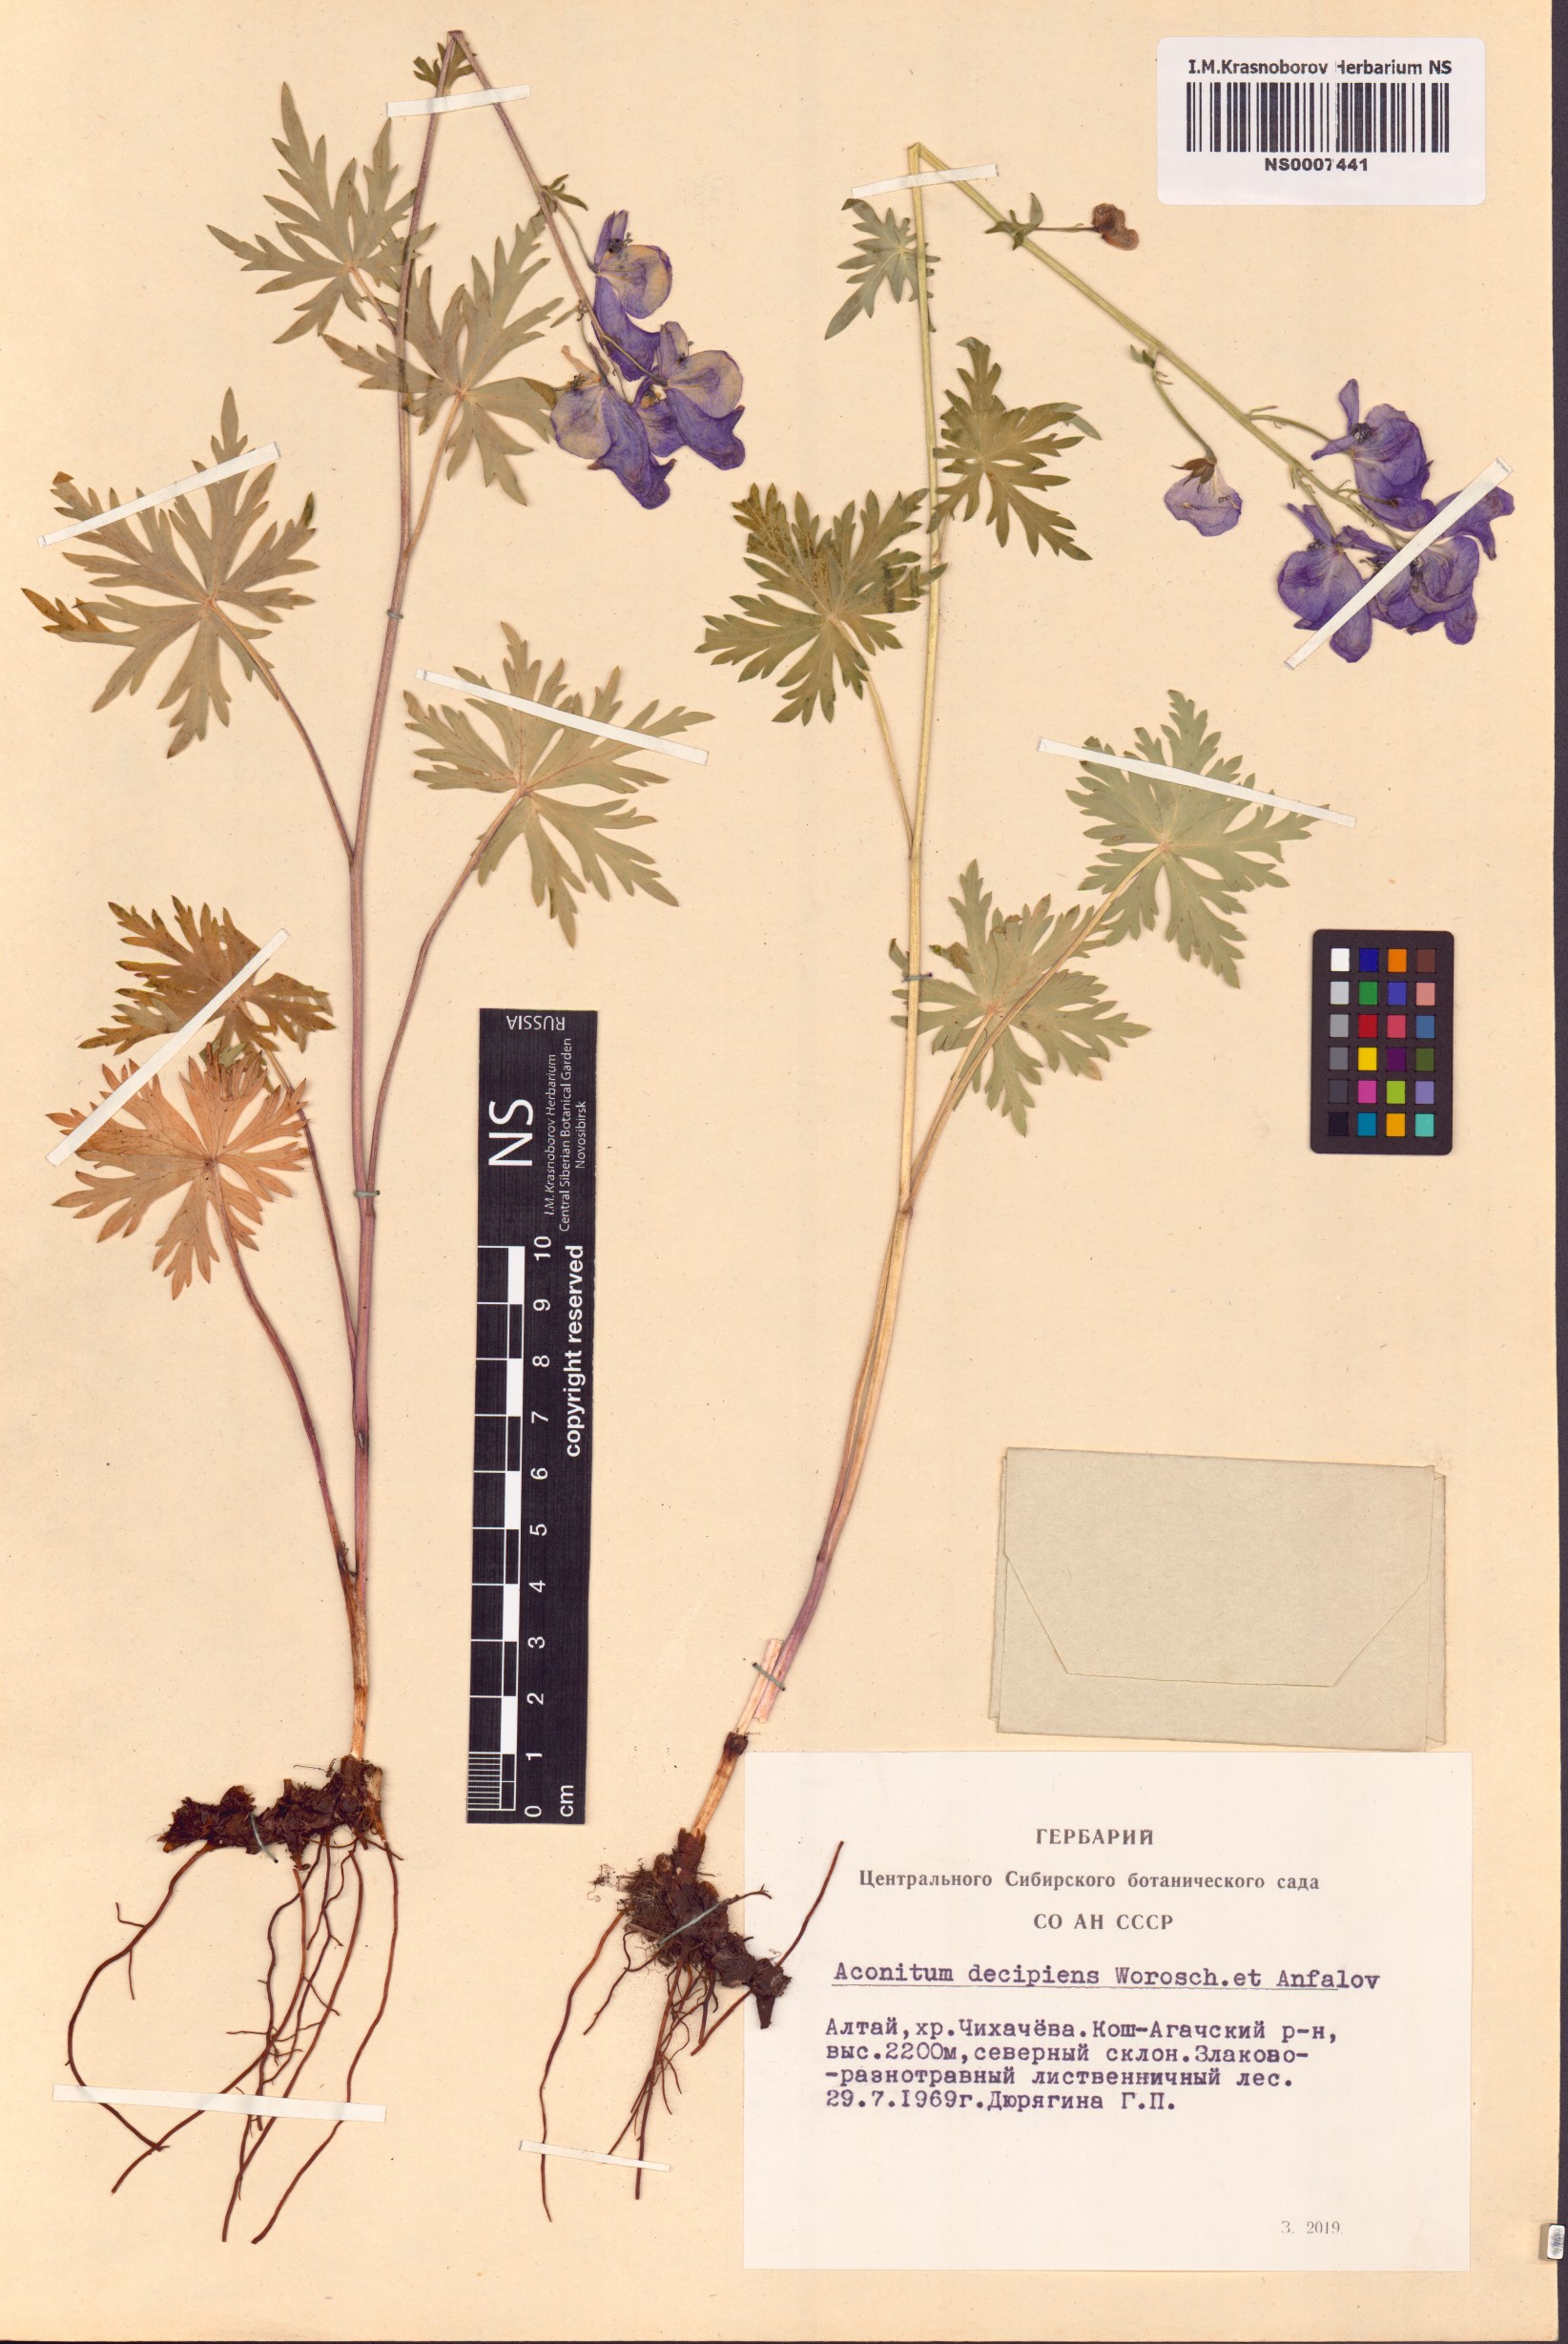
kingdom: Plantae
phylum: Tracheophyta
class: Magnoliopsida
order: Ranunculales
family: Ranunculaceae
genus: Aconitum
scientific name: Aconitum decipiens
